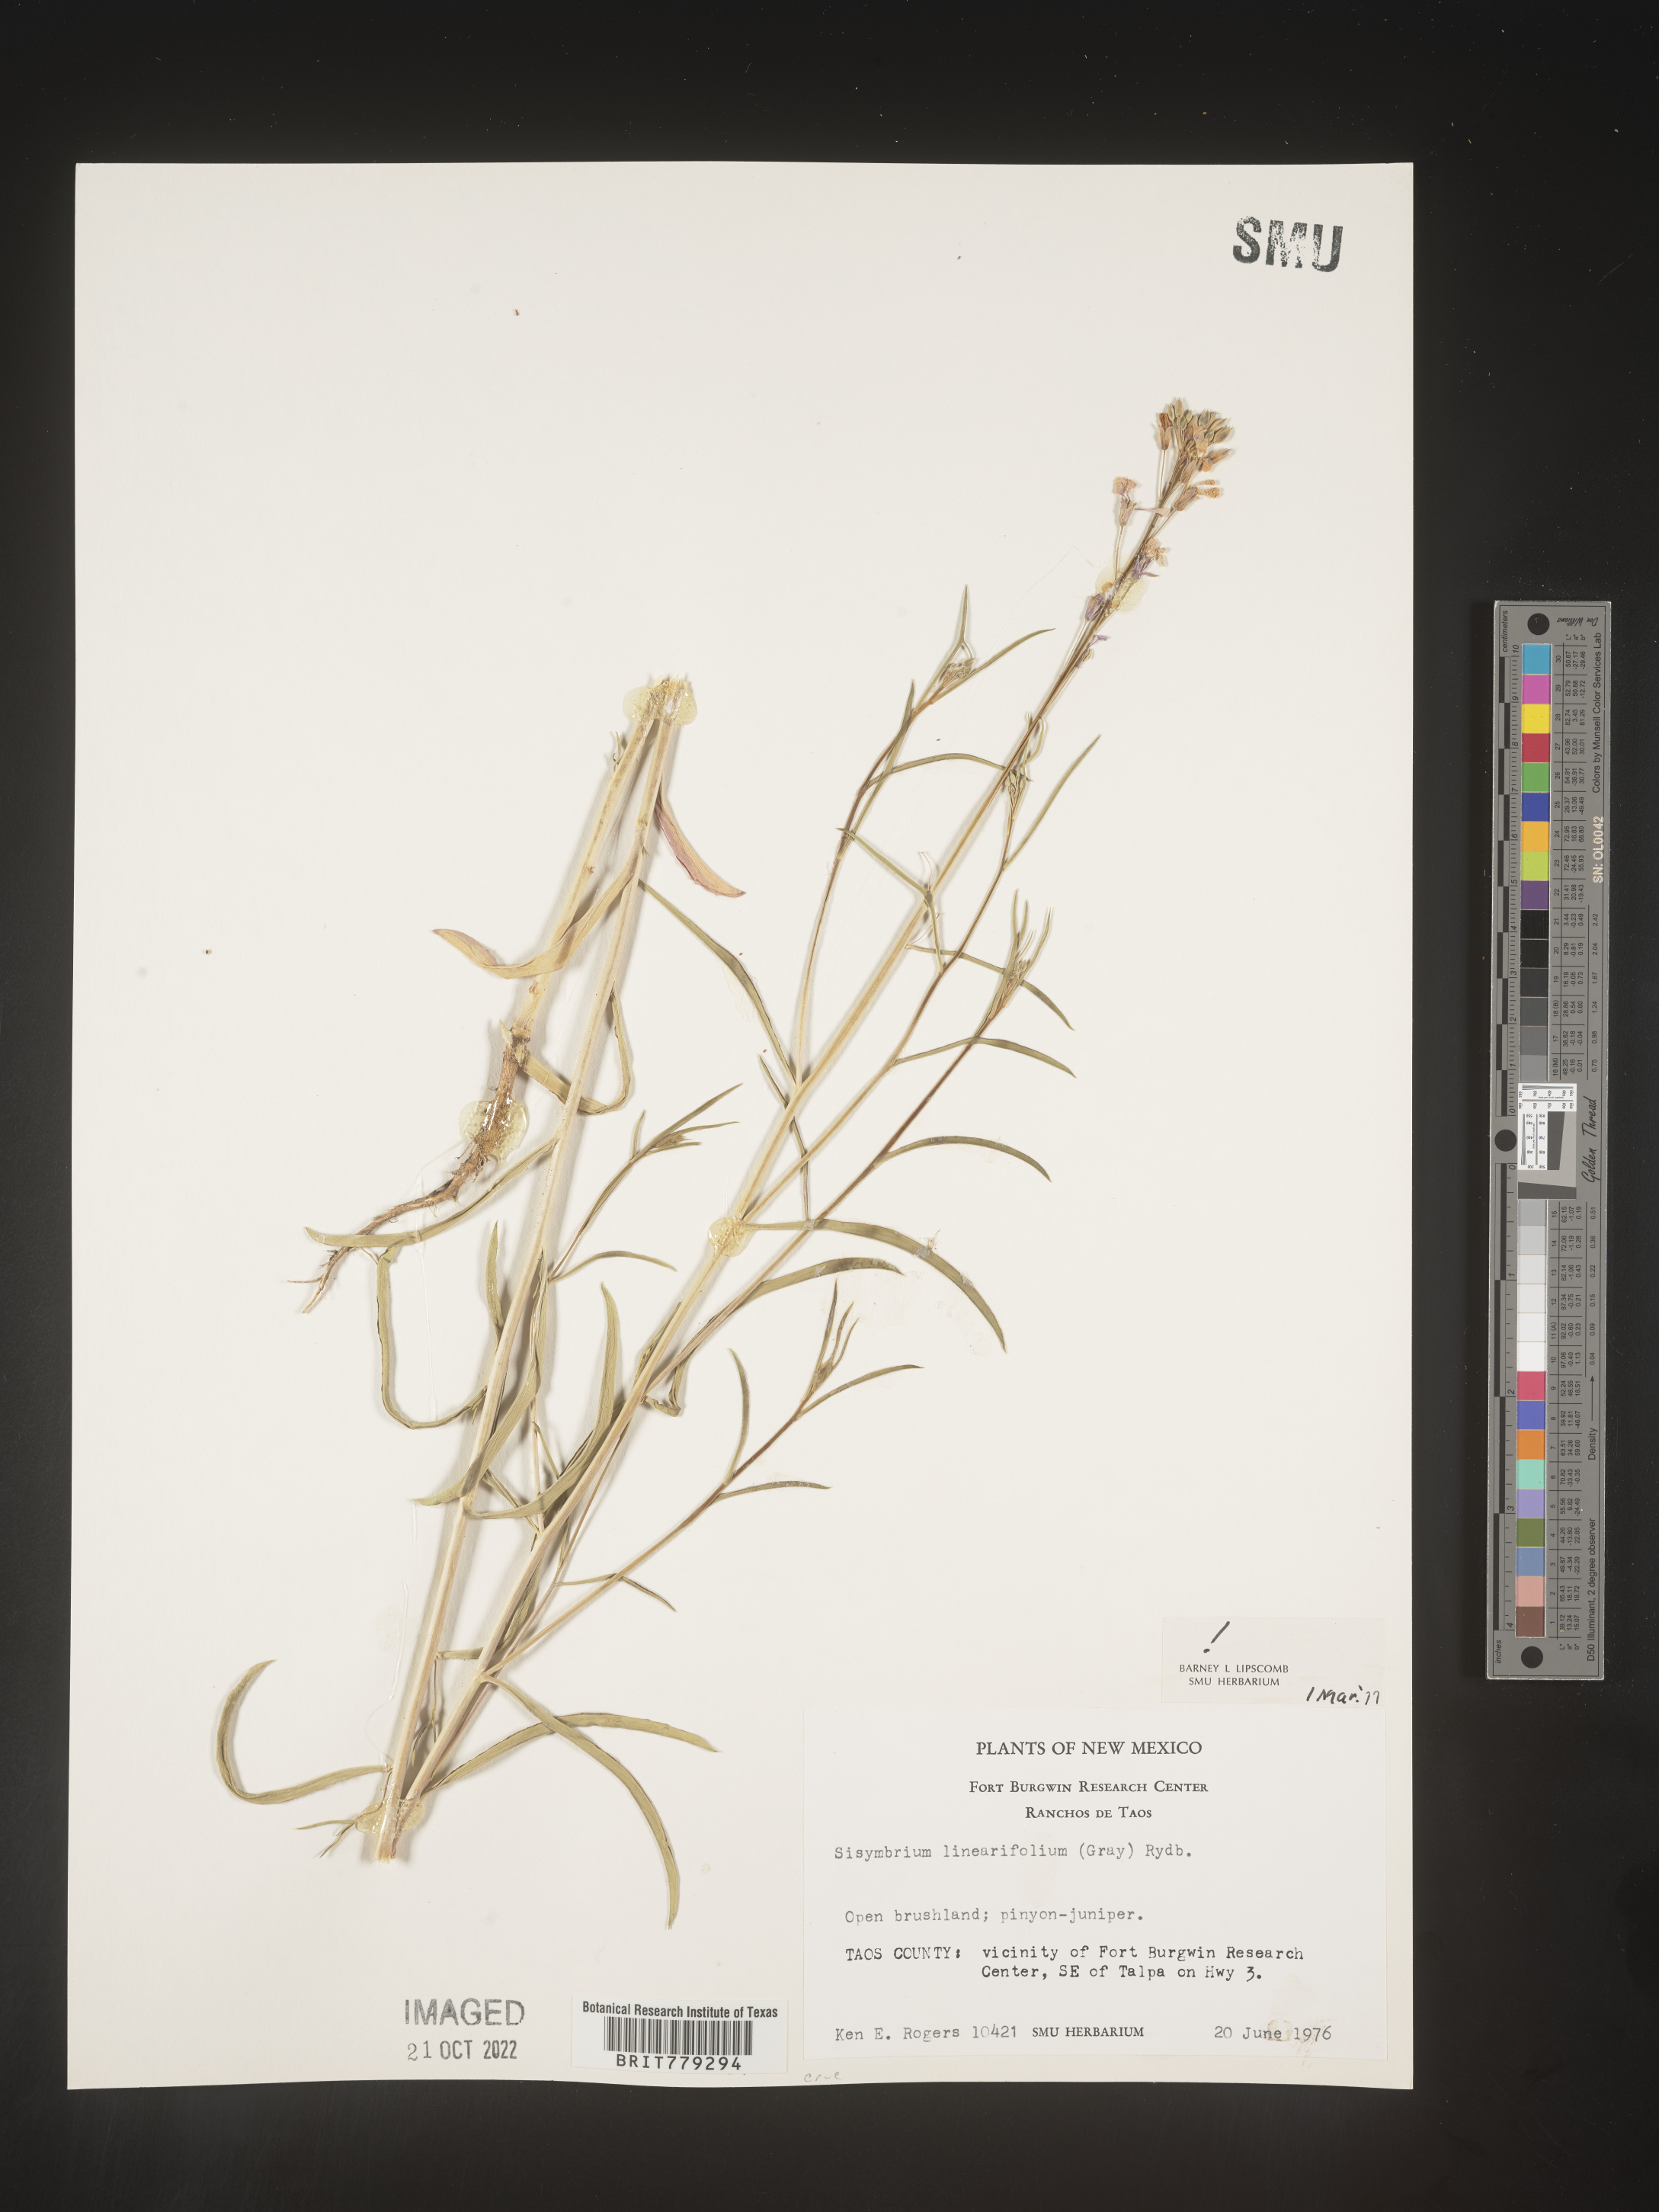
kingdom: Plantae
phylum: Tracheophyta
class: Magnoliopsida
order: Brassicales
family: Brassicaceae
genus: Sisymbrium
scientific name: Sisymbrium
